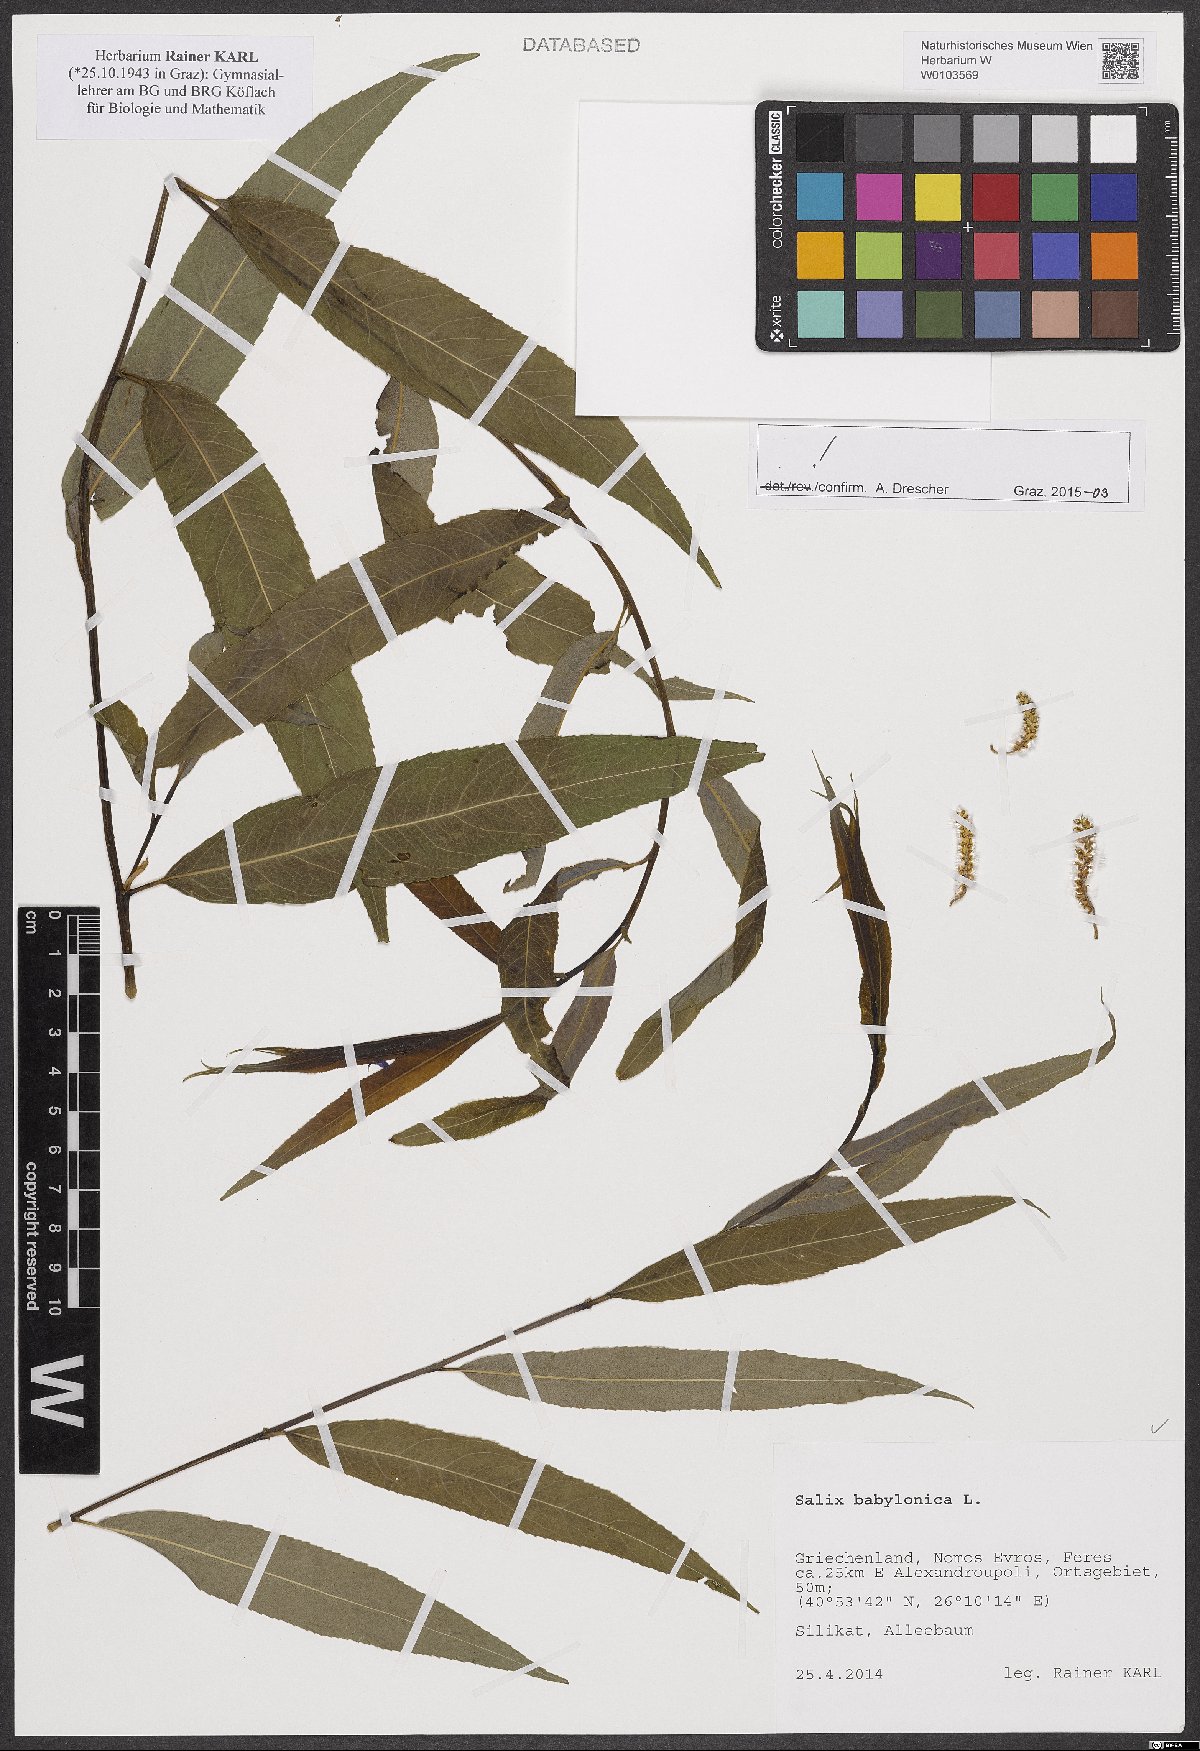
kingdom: Plantae
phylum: Tracheophyta
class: Magnoliopsida
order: Malpighiales
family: Salicaceae
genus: Salix
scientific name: Salix babylonica
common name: Weeping willow
